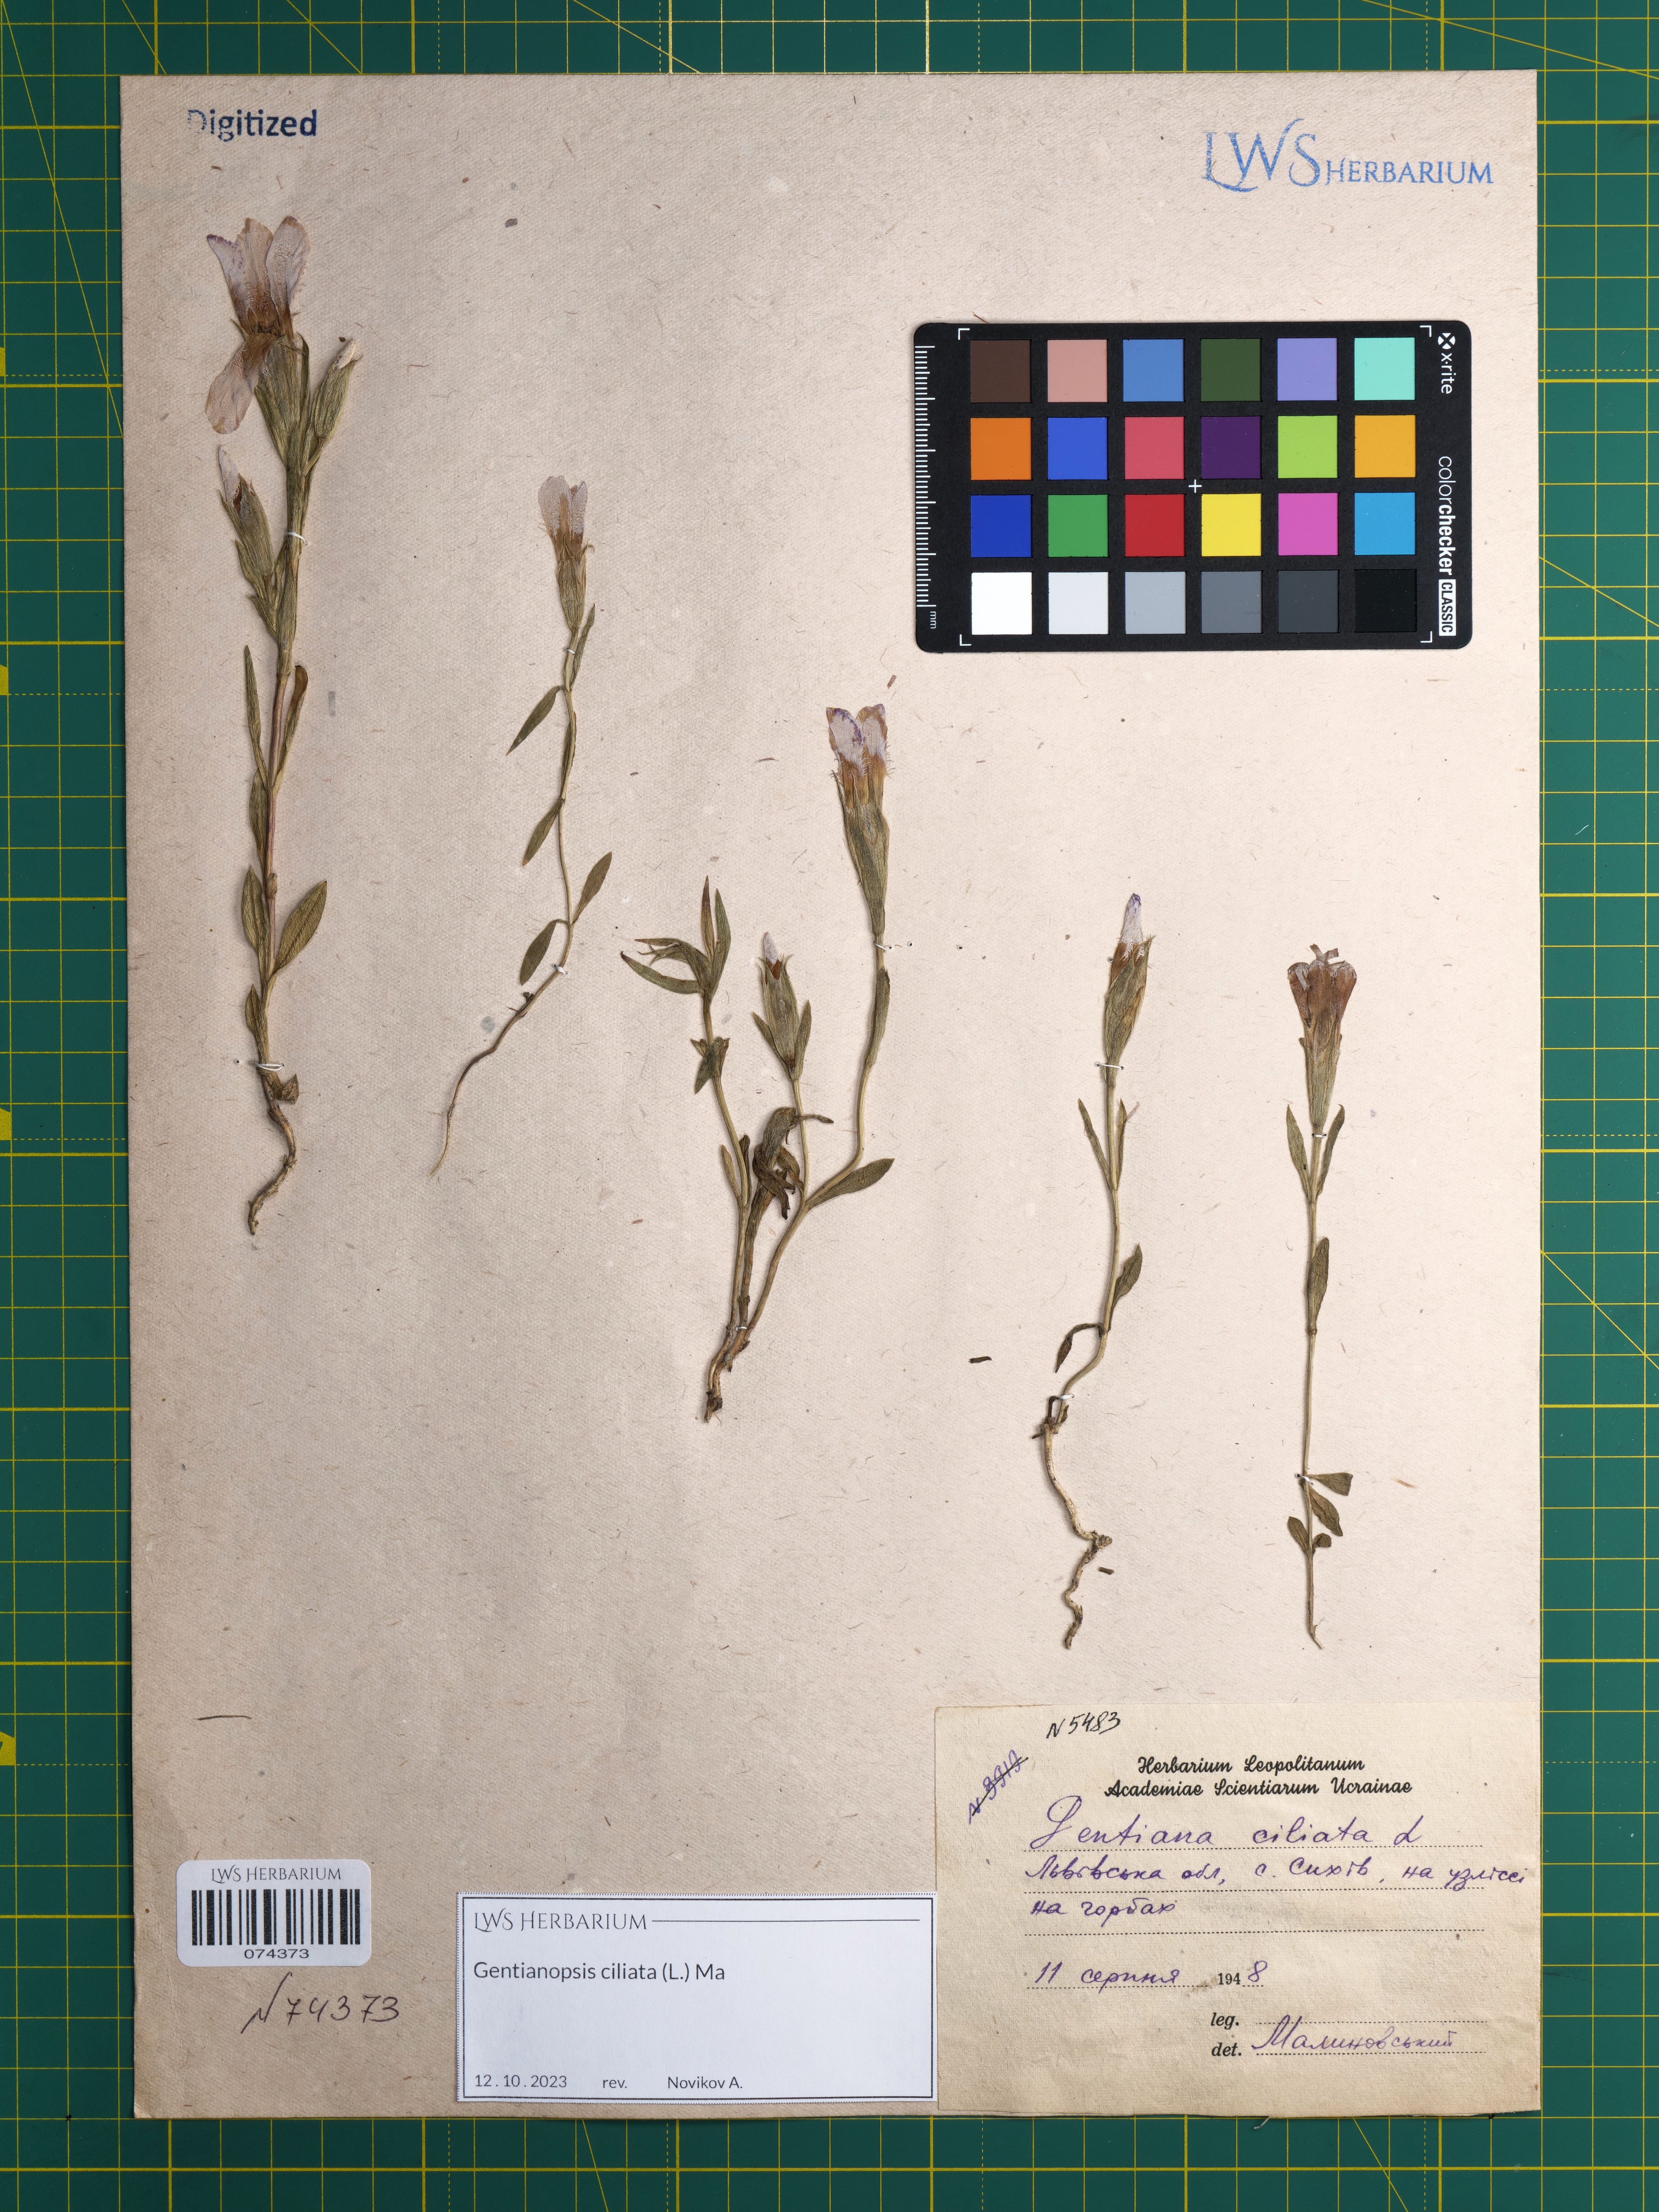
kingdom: Plantae
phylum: Tracheophyta
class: Magnoliopsida
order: Gentianales
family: Gentianaceae
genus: Gentianopsis
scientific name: Gentianopsis ciliata
